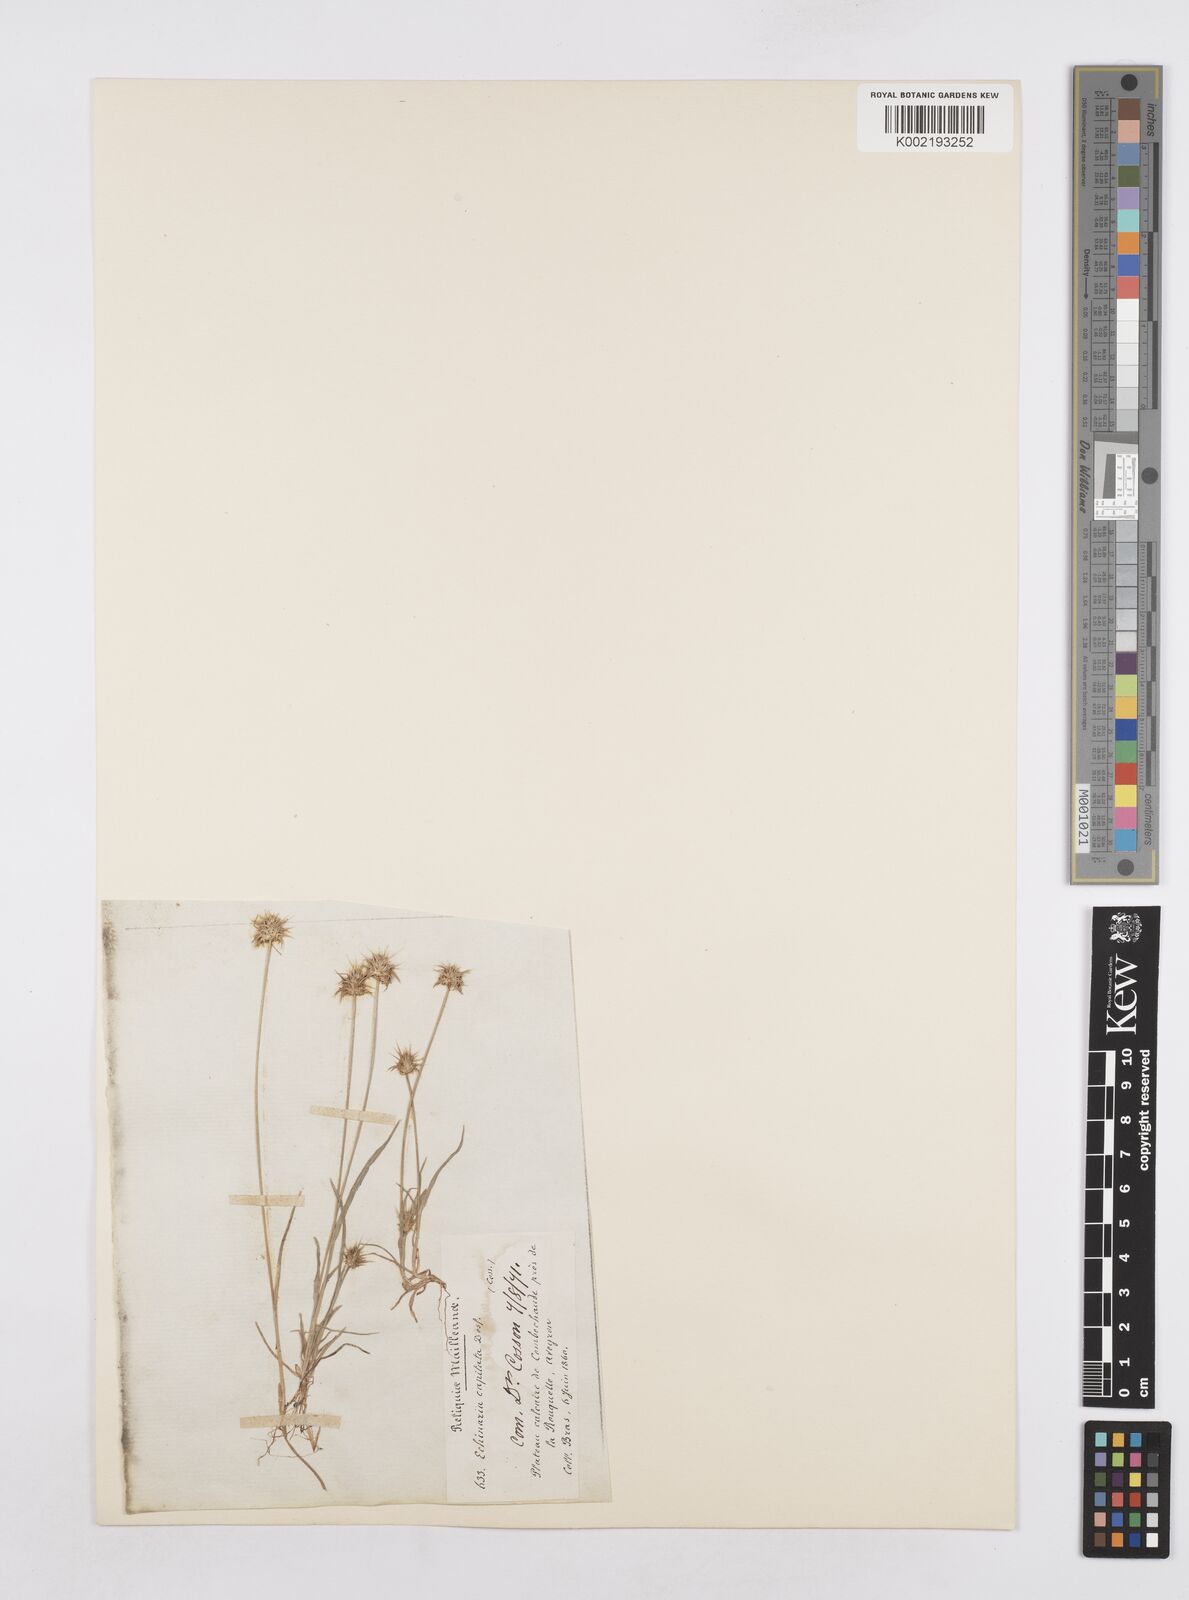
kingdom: Plantae
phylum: Tracheophyta
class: Liliopsida
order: Poales
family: Poaceae
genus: Echinaria
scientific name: Echinaria capitata
